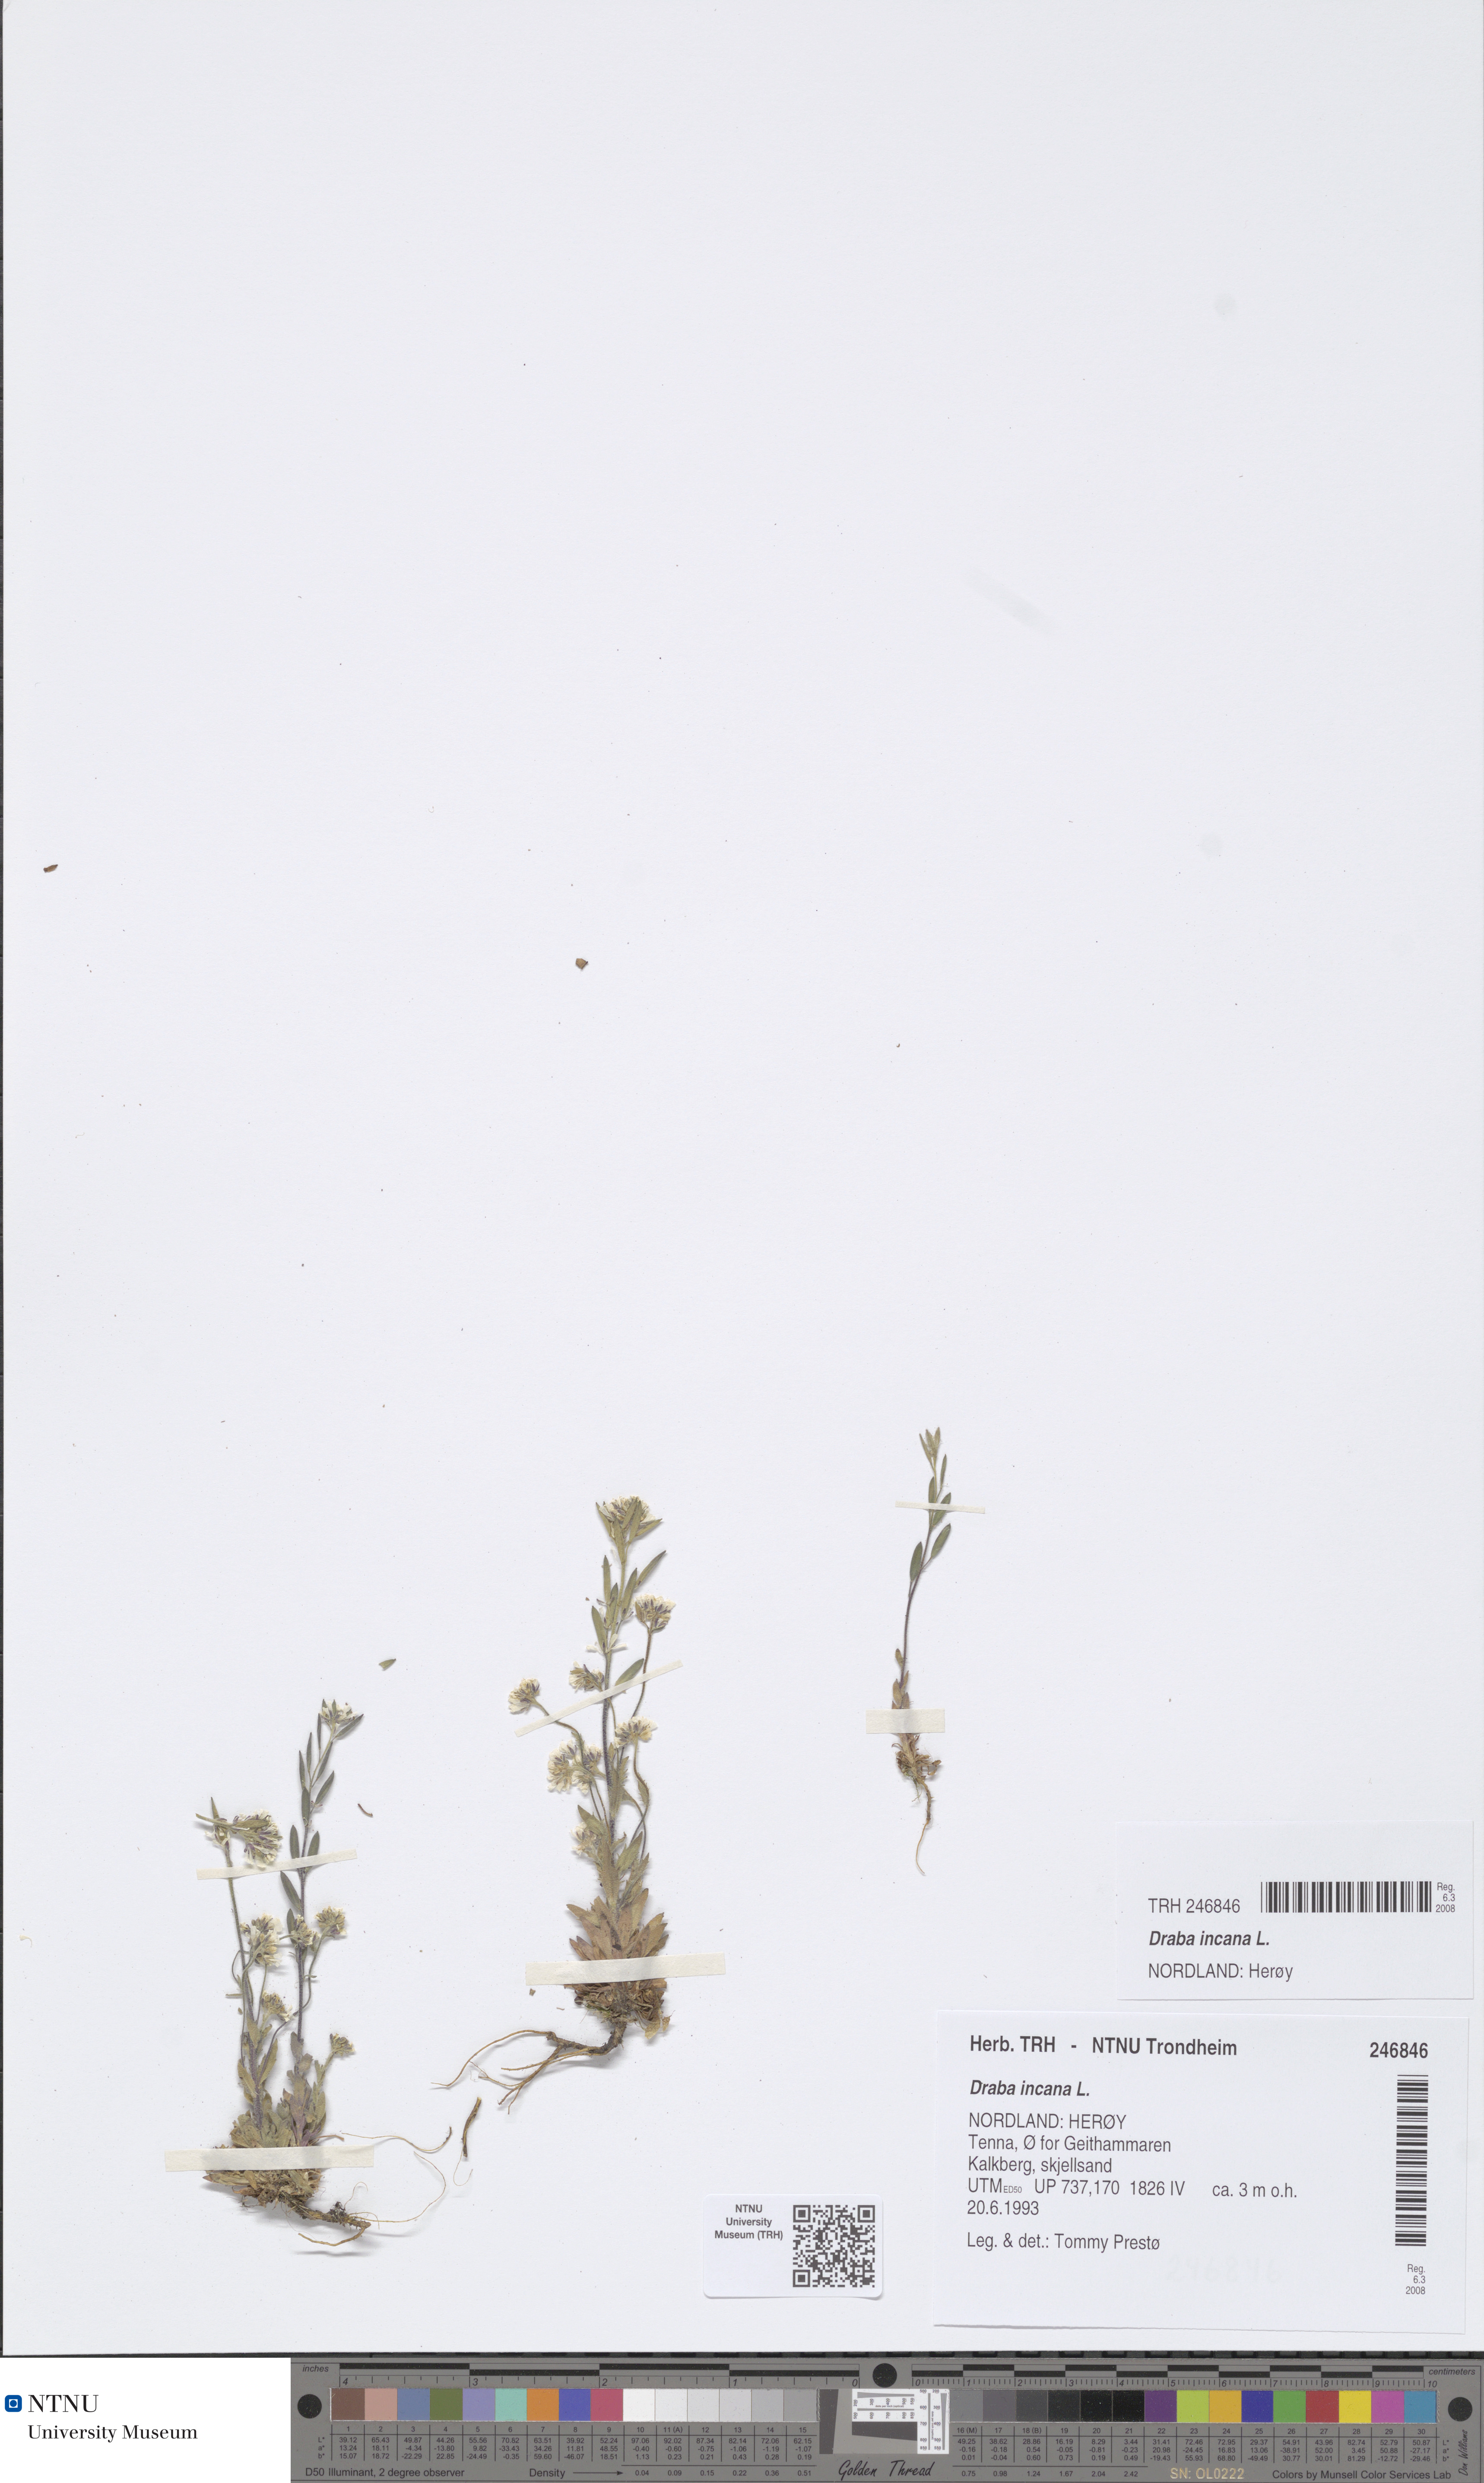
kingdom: Plantae
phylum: Tracheophyta
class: Magnoliopsida
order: Brassicales
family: Brassicaceae
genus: Draba
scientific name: Draba incana
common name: Hoary whitlow-grass
